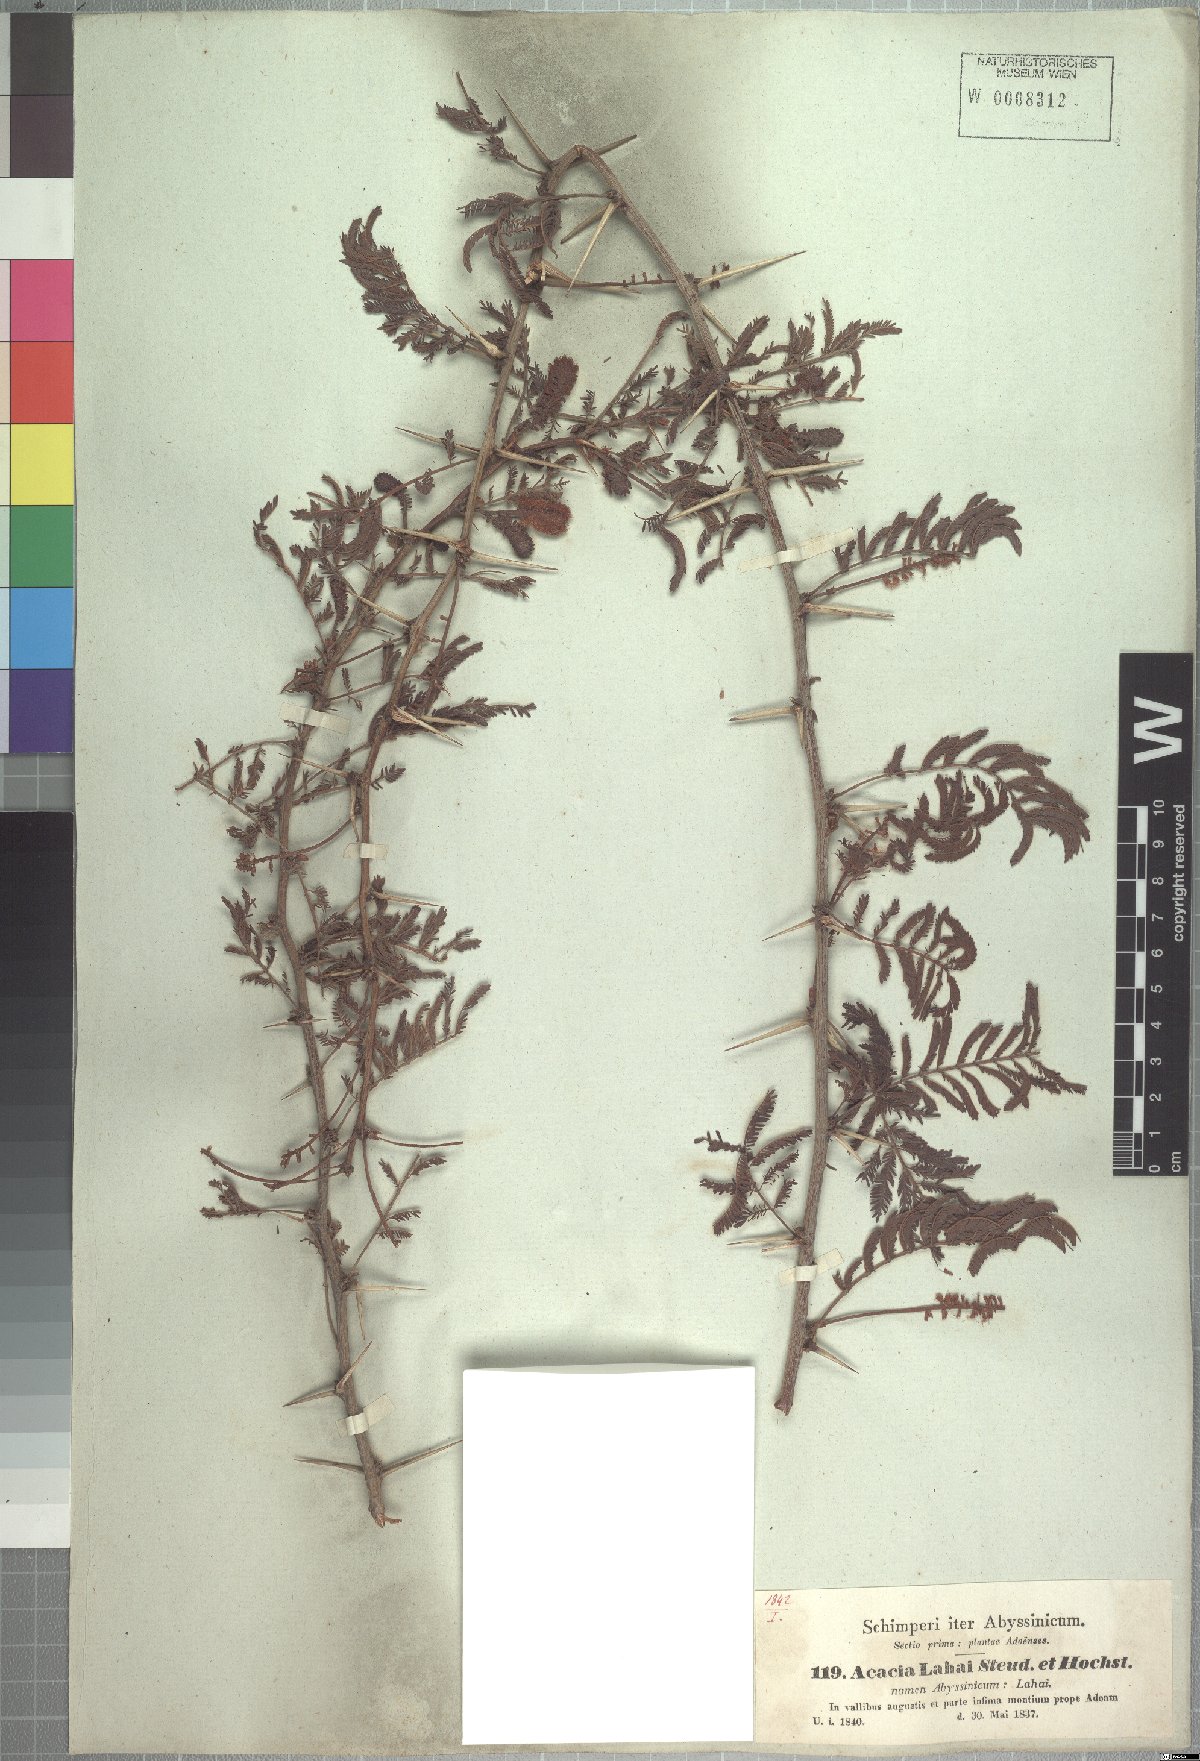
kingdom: Plantae
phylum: Tracheophyta
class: Magnoliopsida
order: Fabales
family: Fabaceae
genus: Vachellia
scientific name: Vachellia lahai
